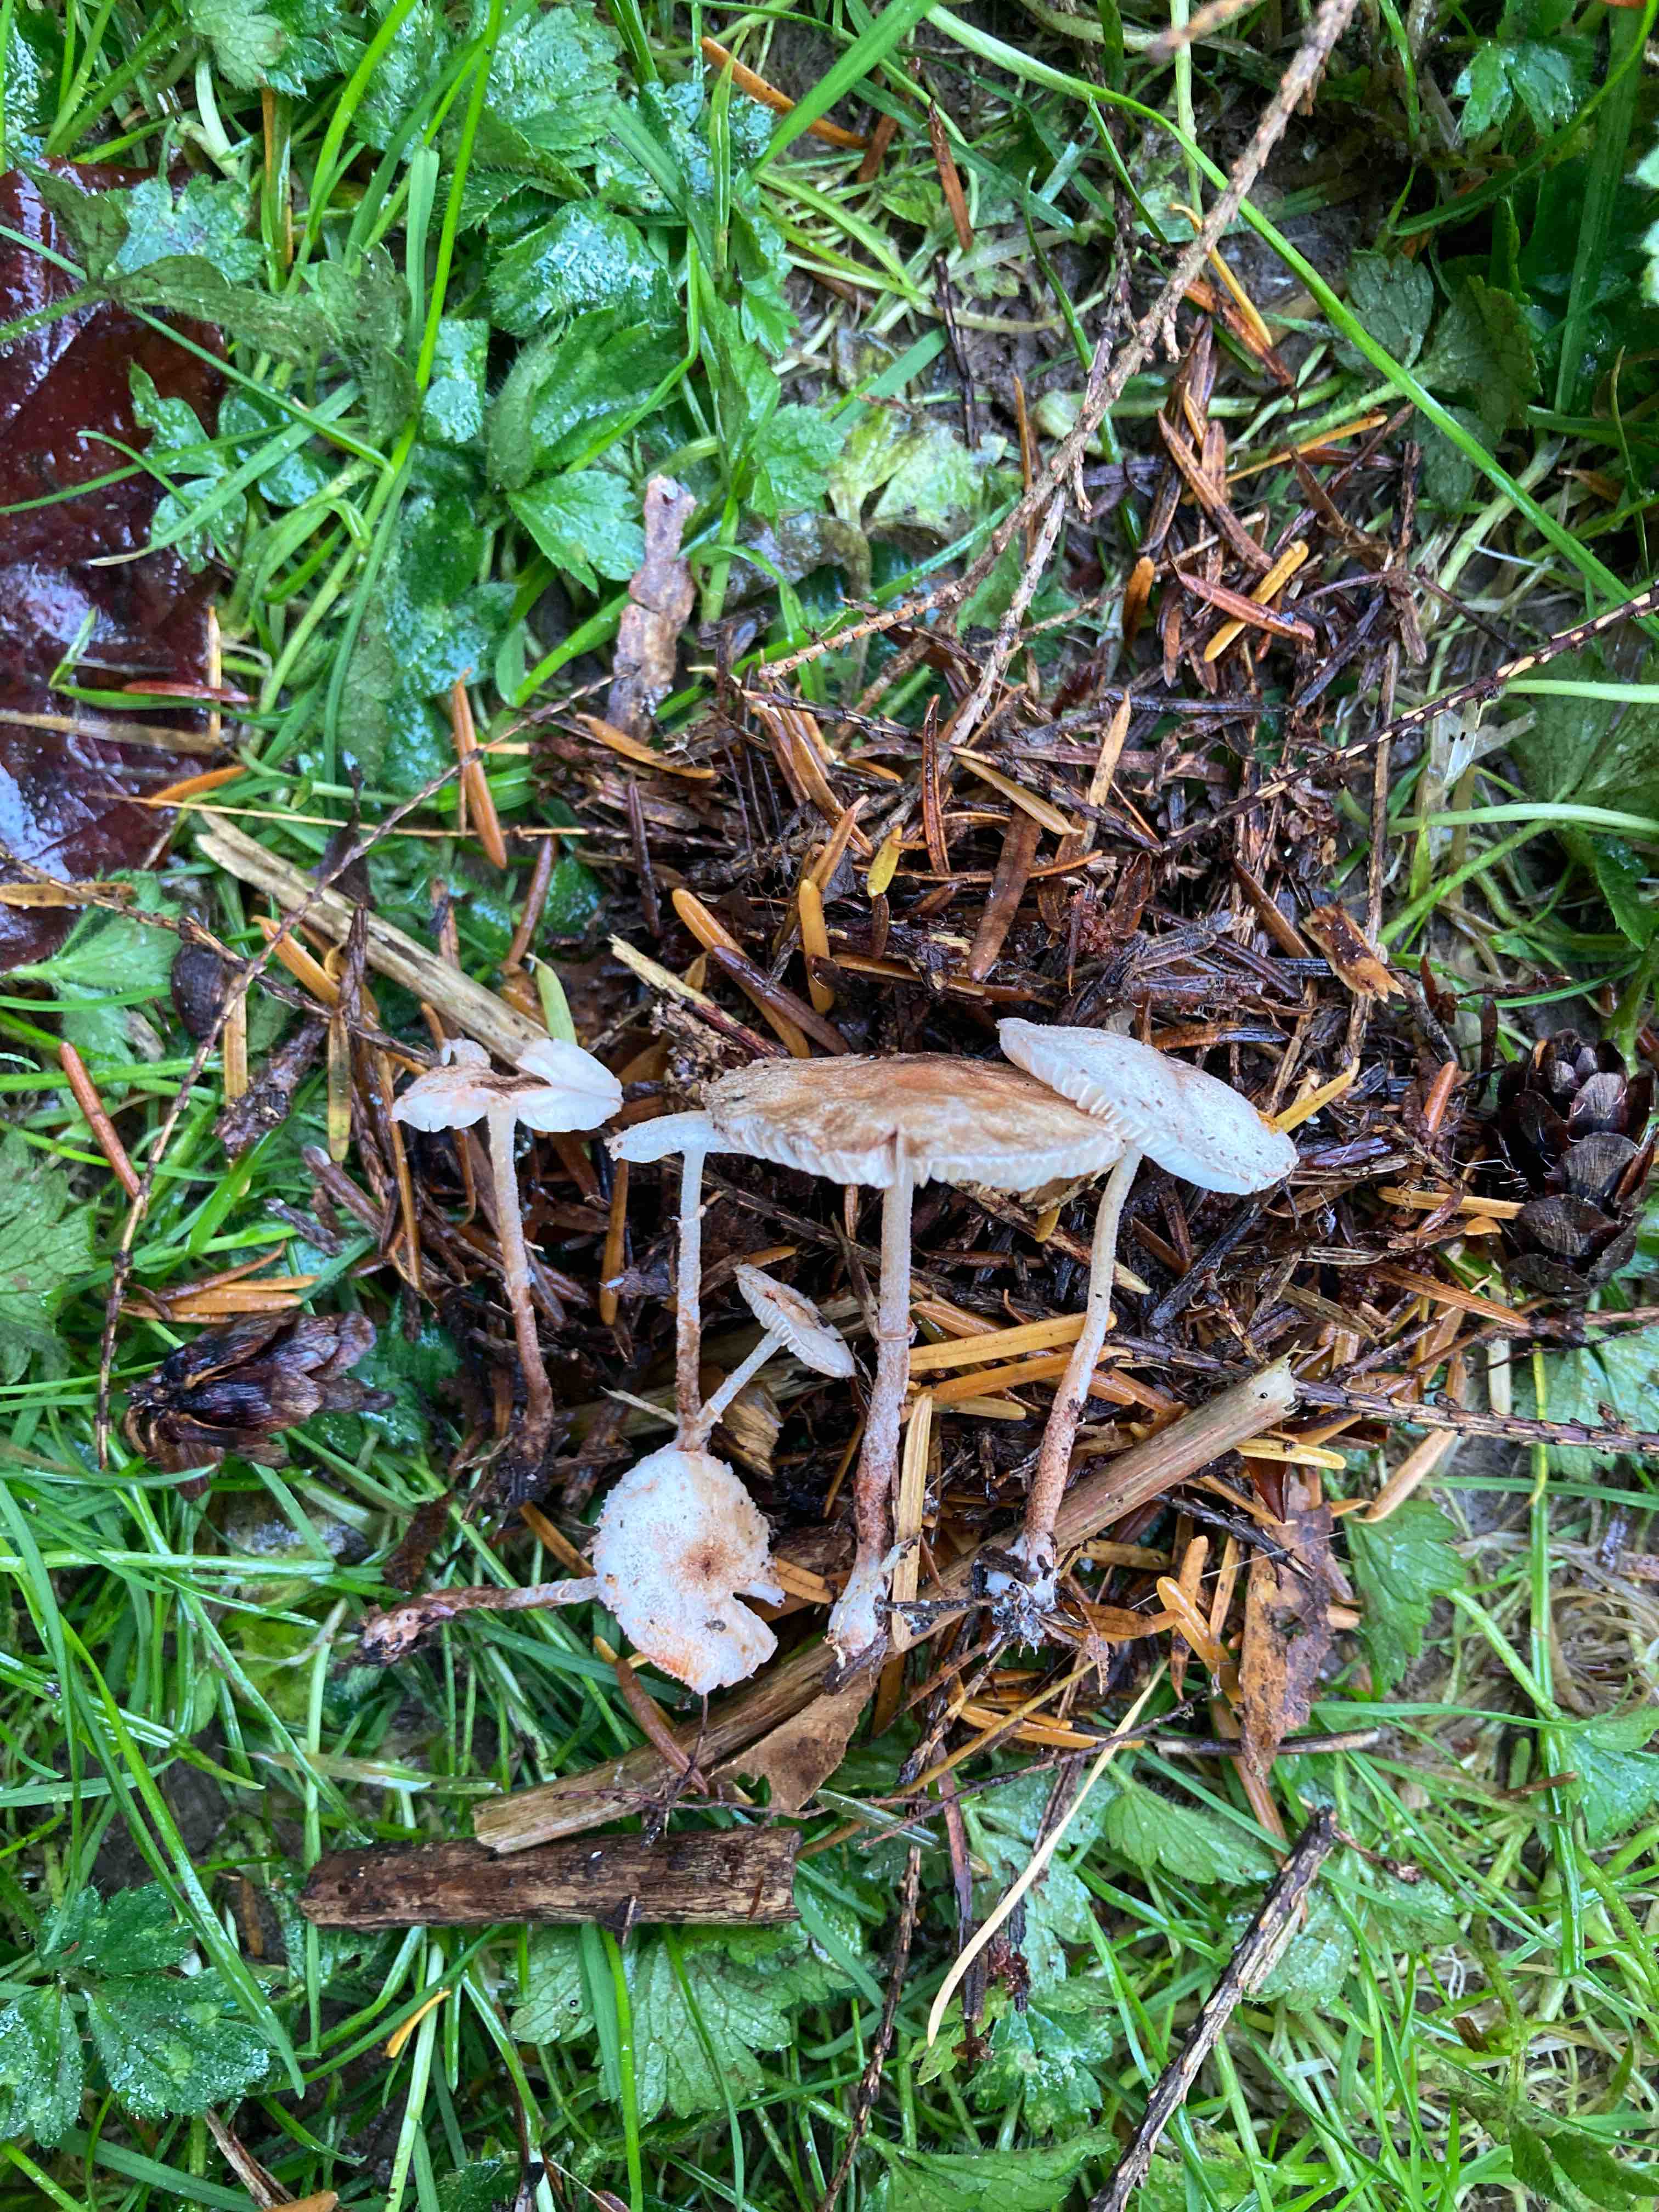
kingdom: Fungi
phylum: Basidiomycota
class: Agaricomycetes
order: Agaricales
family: Agaricaceae
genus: Leucoagaricus
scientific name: Leucoagaricus georginae
